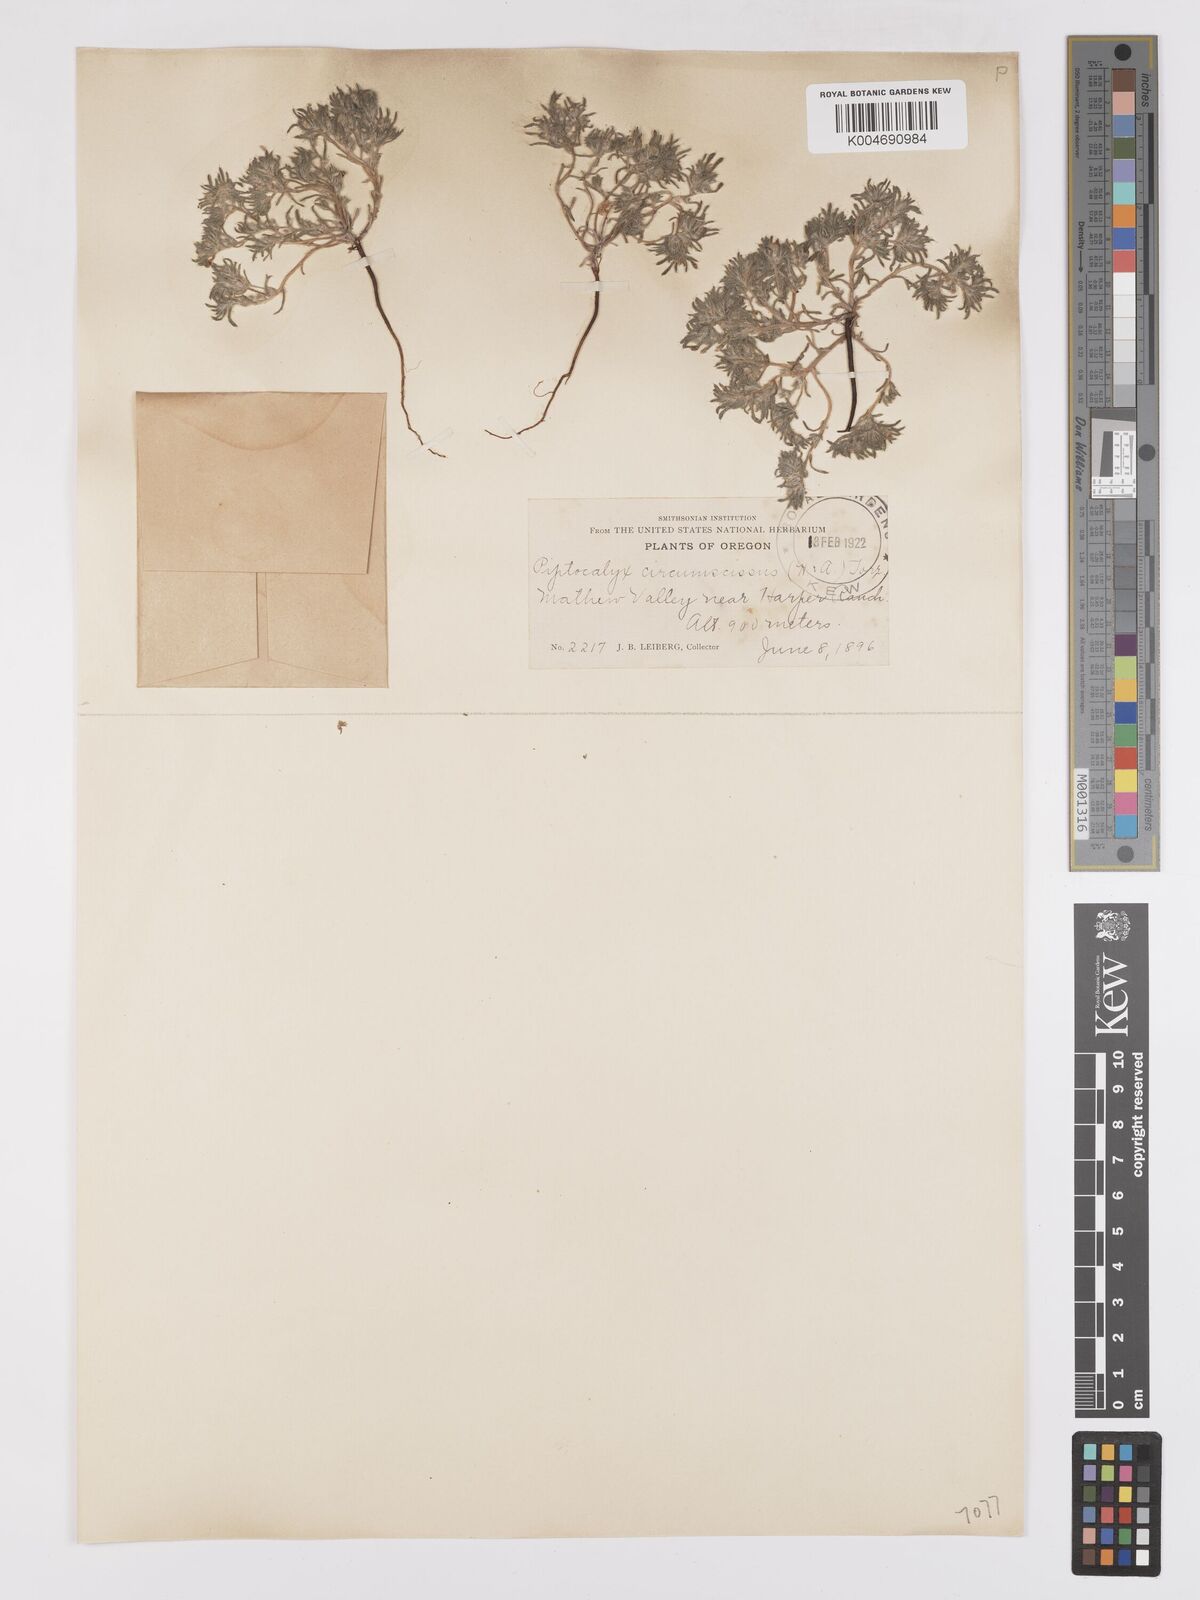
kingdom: Plantae
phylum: Tracheophyta
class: Magnoliopsida
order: Boraginales
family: Boraginaceae
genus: Greeneocharis
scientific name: Greeneocharis circumscissa
